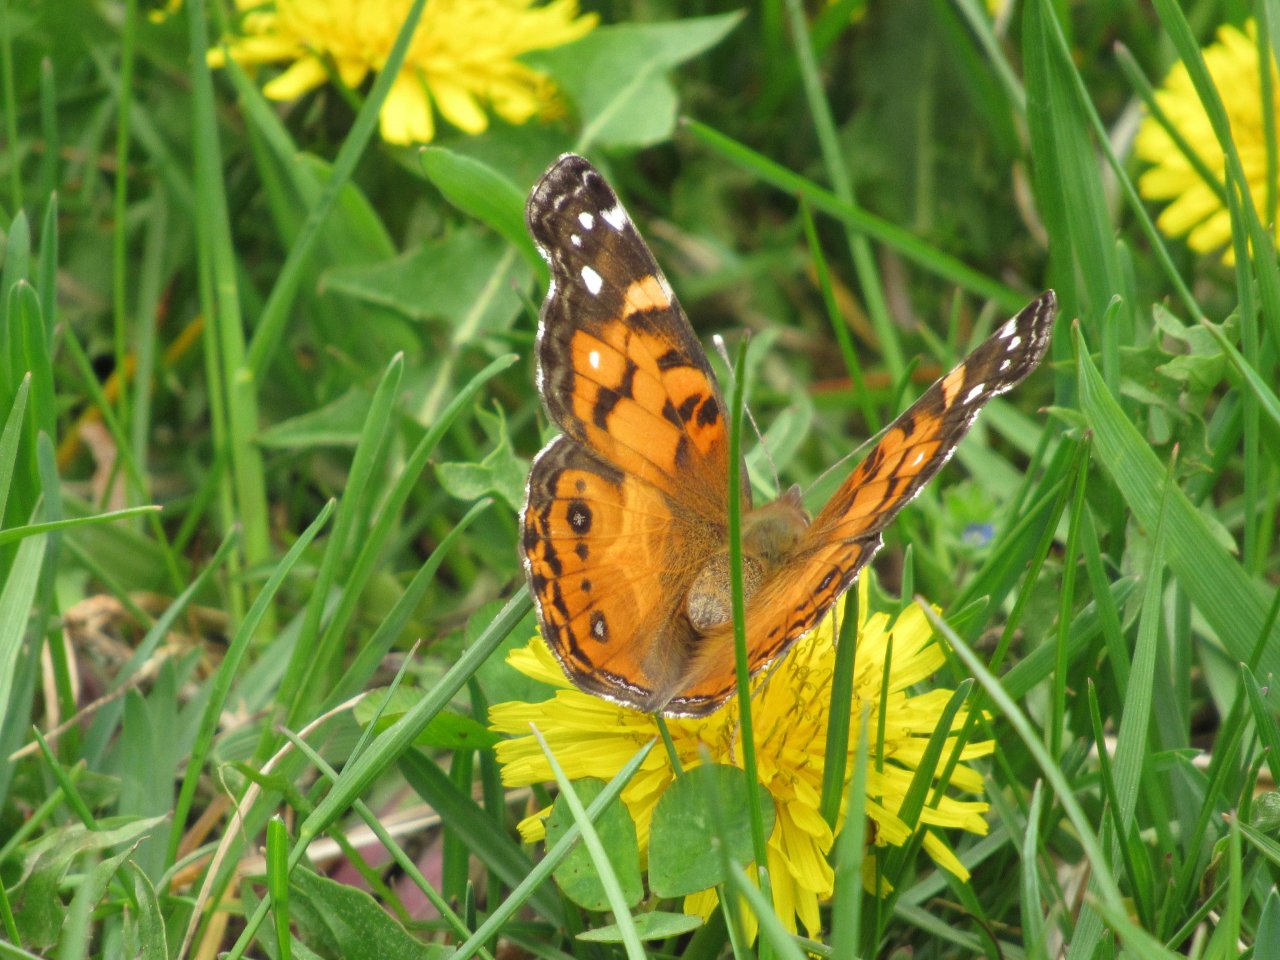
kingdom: Animalia
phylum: Arthropoda
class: Insecta
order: Lepidoptera
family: Nymphalidae
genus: Vanessa
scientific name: Vanessa virginiensis
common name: American Lady
